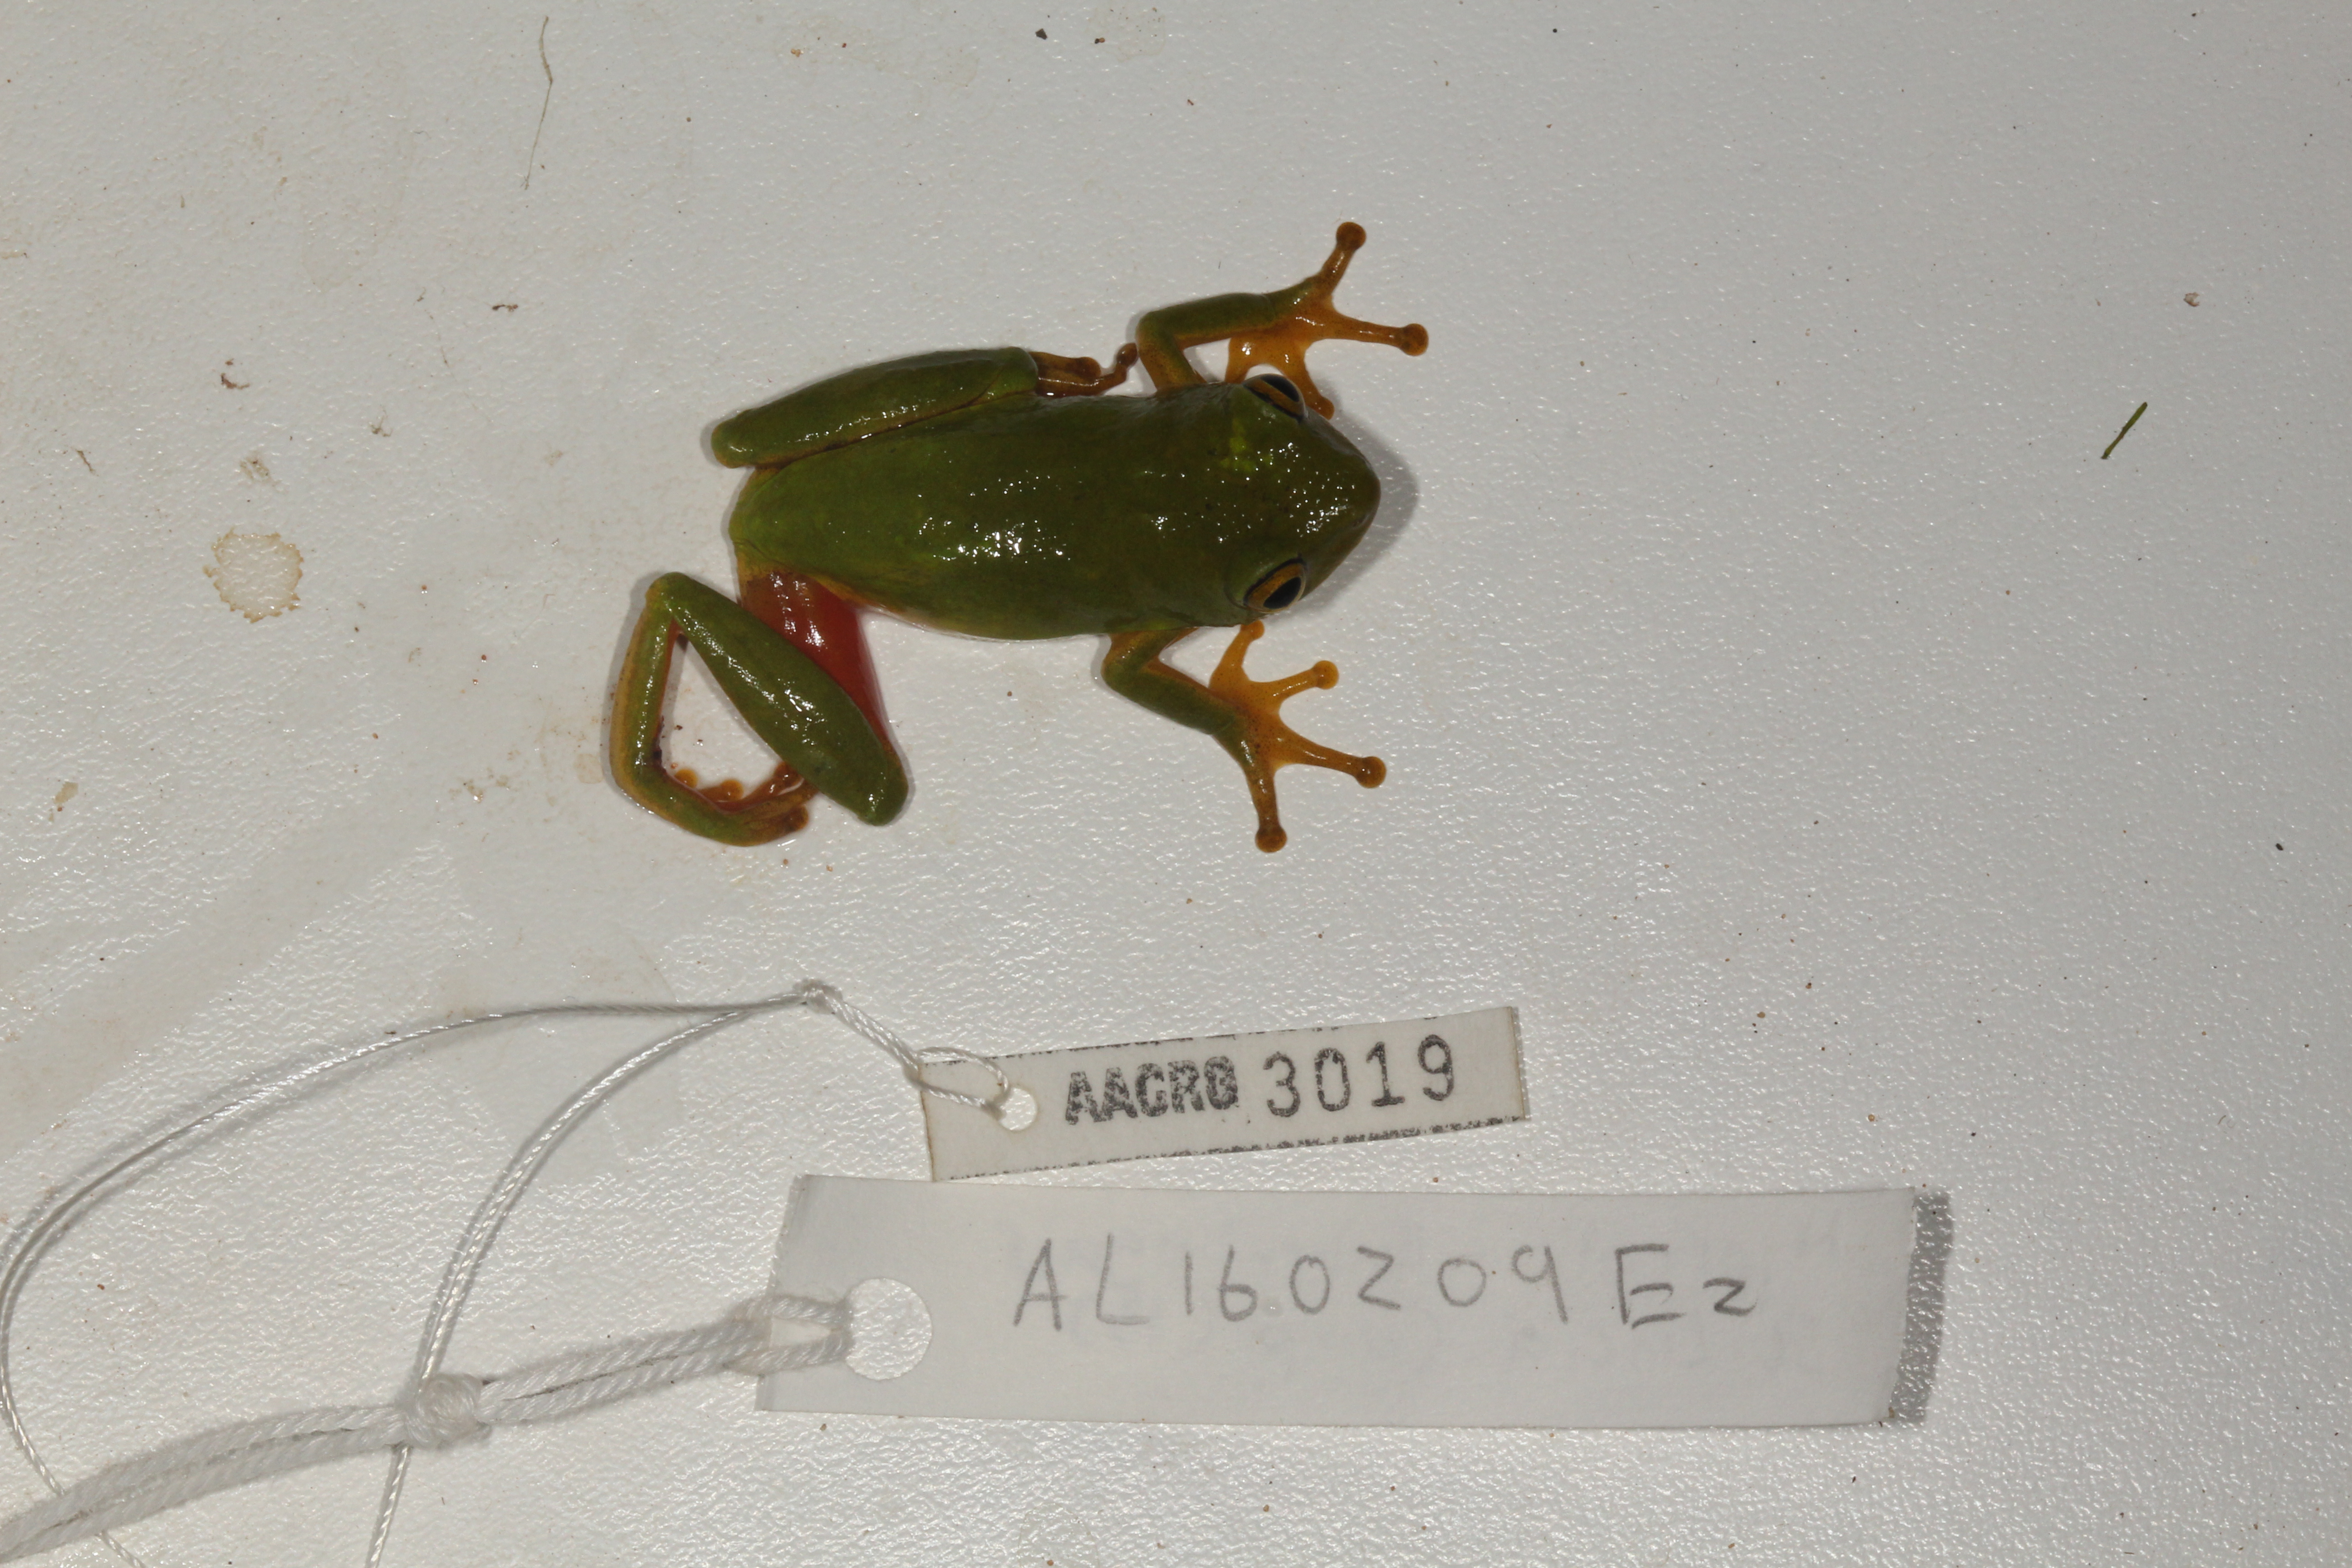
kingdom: Animalia
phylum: Chordata
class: Amphibia
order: Anura
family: Hyperoliidae
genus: Hyperolius
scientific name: Hyperolius tuberilinguis
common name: Tinker reed frog
